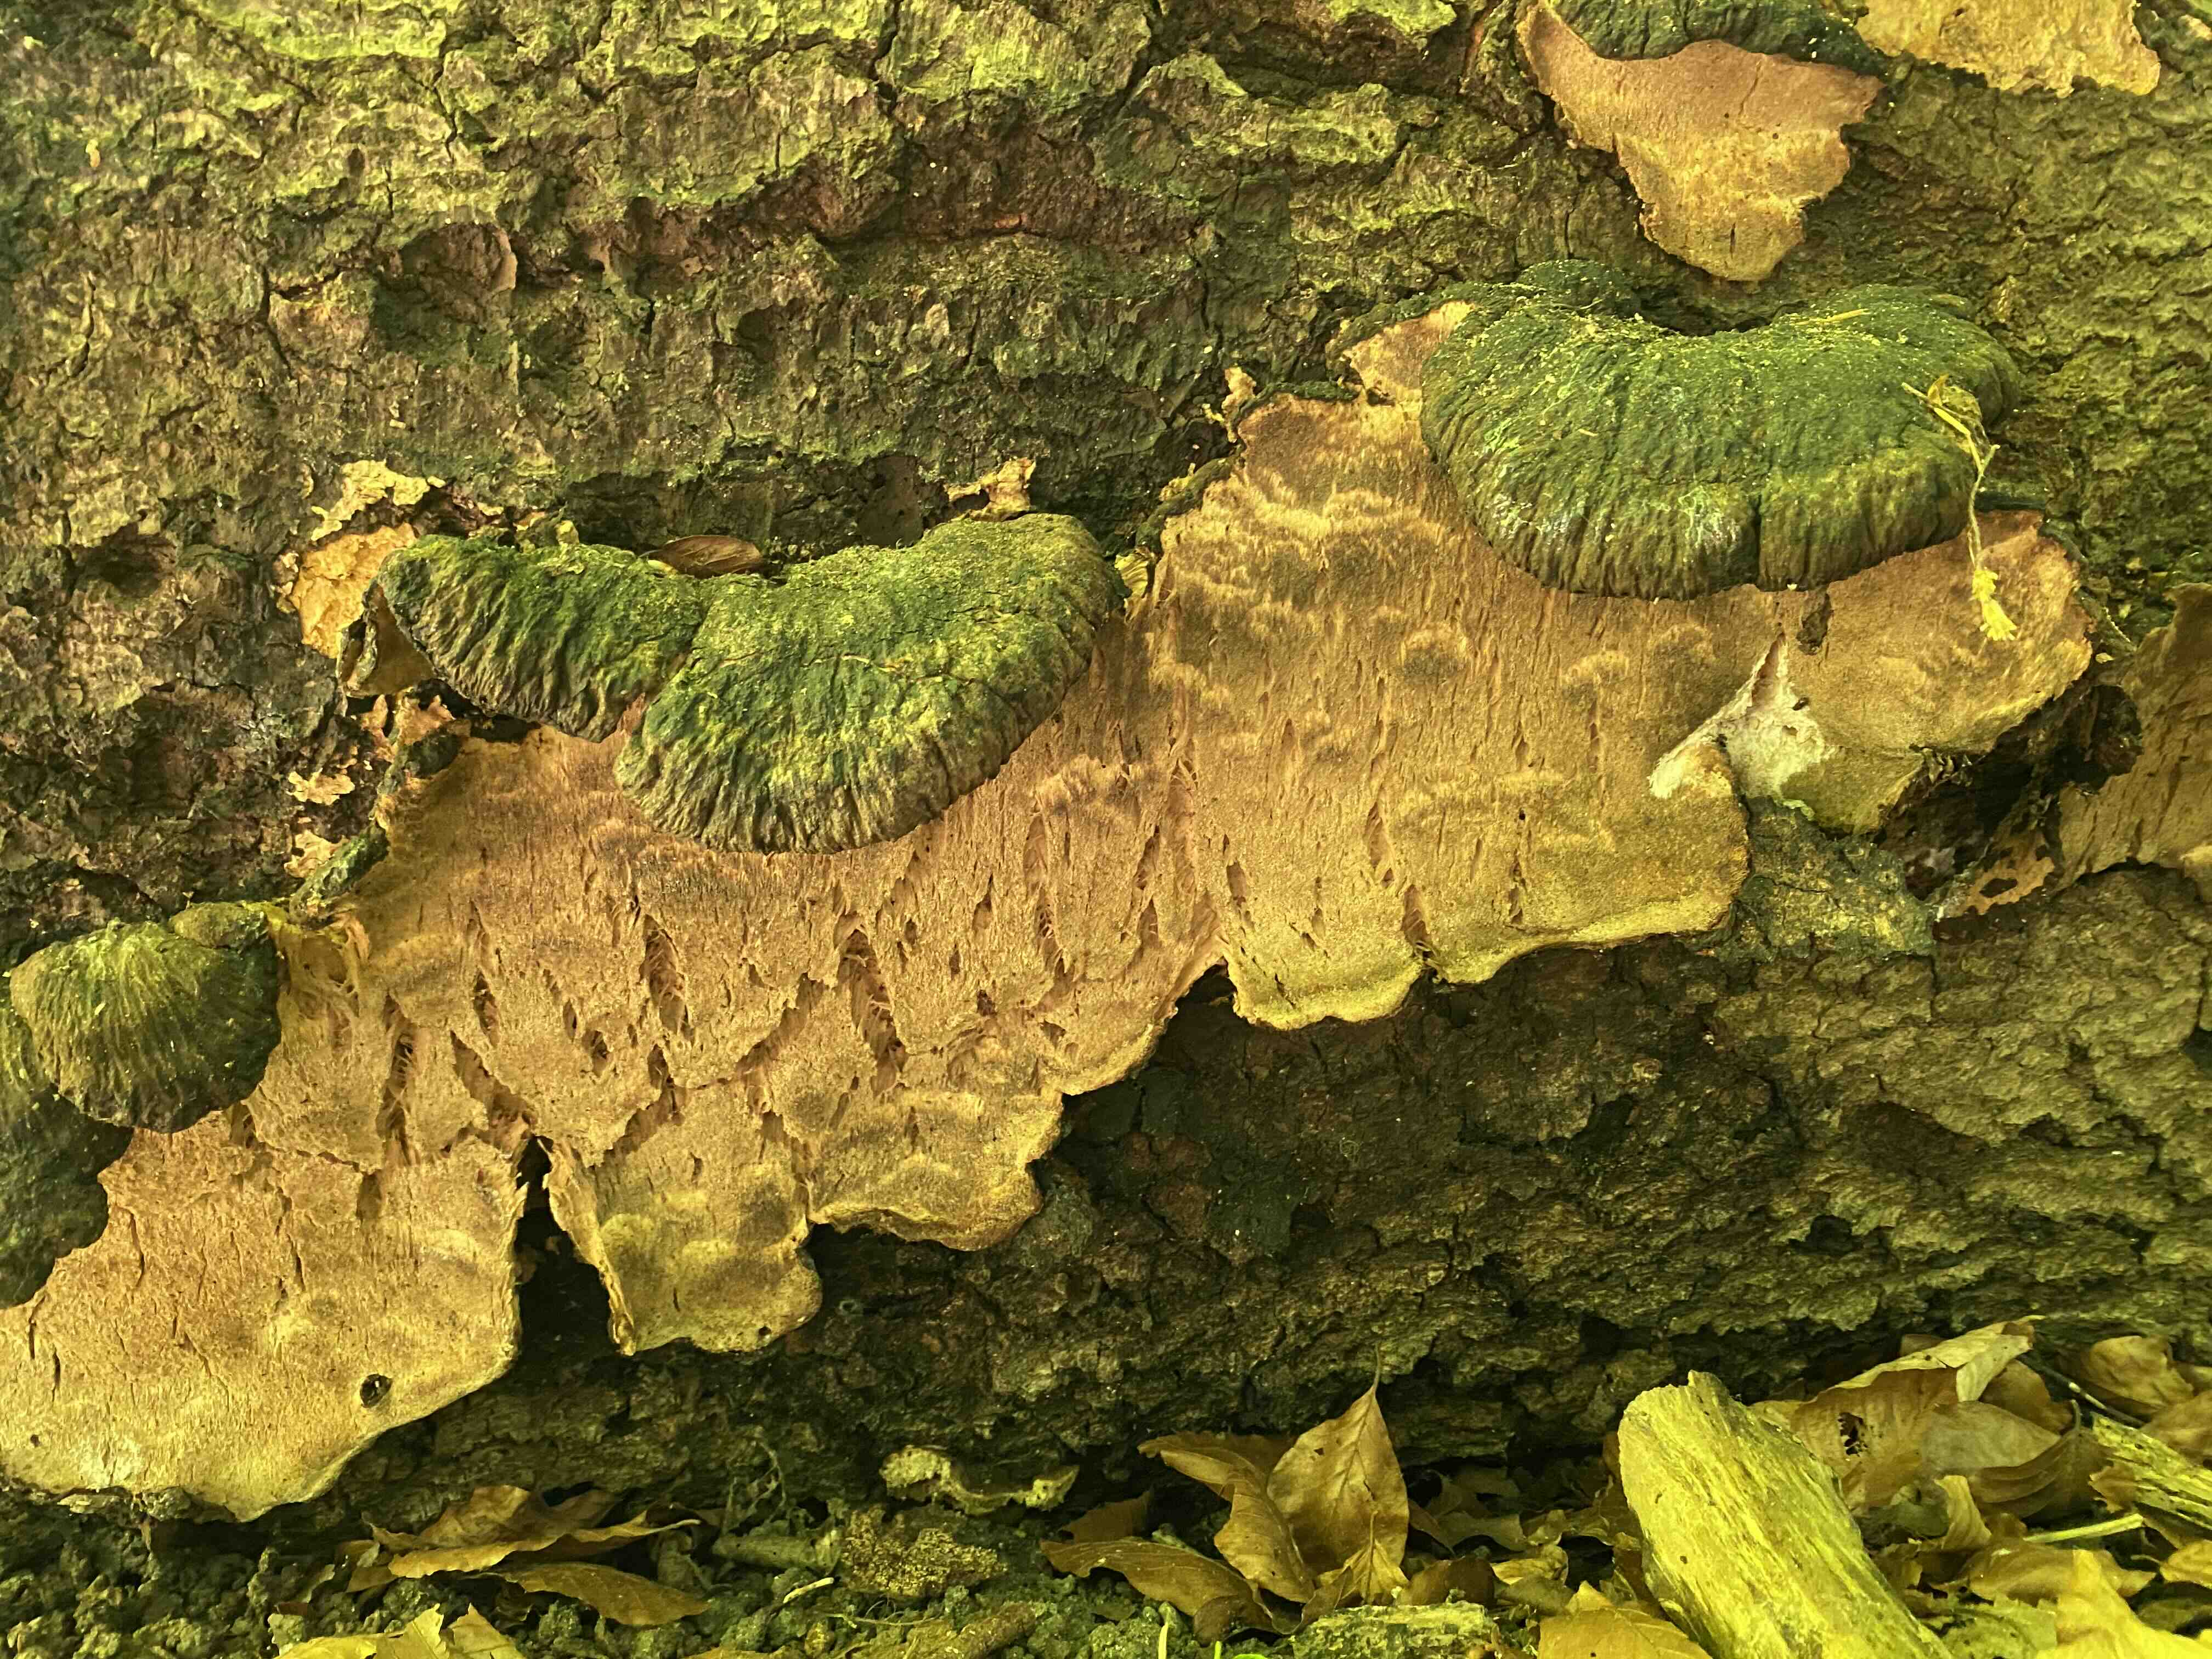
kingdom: Fungi
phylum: Basidiomycota
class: Agaricomycetes
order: Polyporales
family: Ischnodermataceae
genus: Ischnoderma
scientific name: Ischnoderma resinosum
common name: løv-tjæreporesvamp
